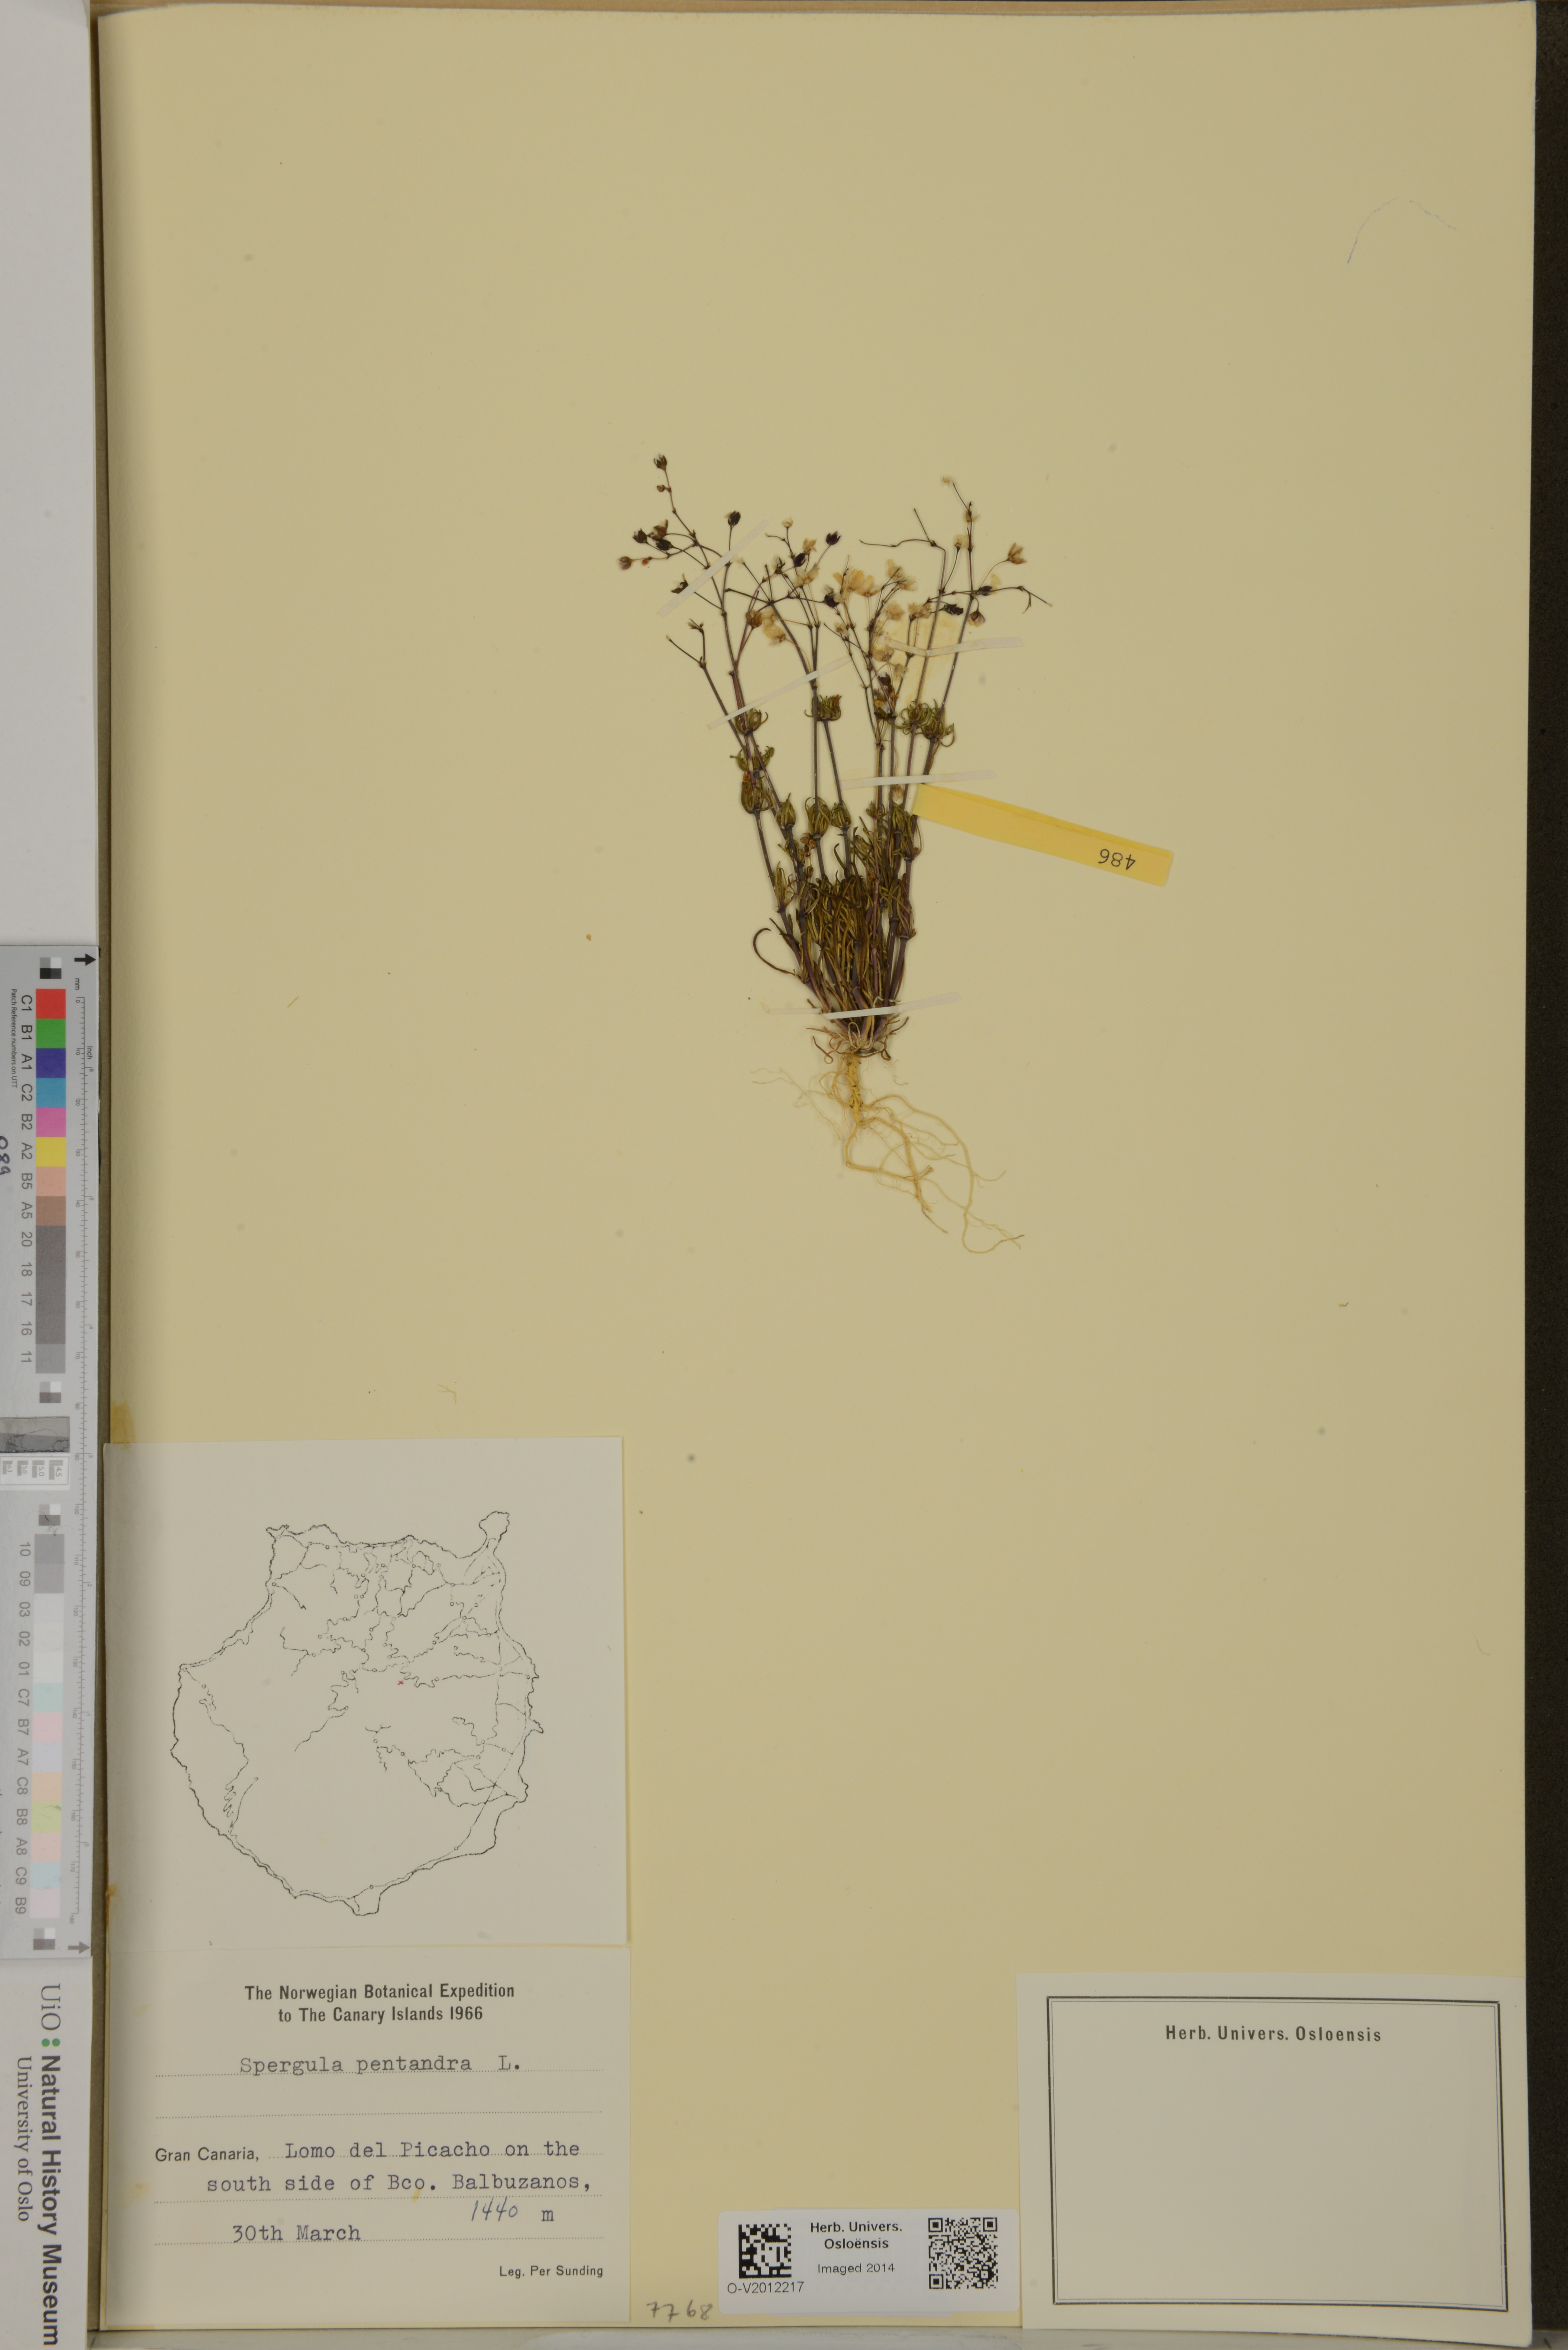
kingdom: Plantae
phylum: Tracheophyta
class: Magnoliopsida
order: Caryophyllales
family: Caryophyllaceae
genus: Spergula
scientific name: Spergula pentandra
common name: Wingstem spurry
